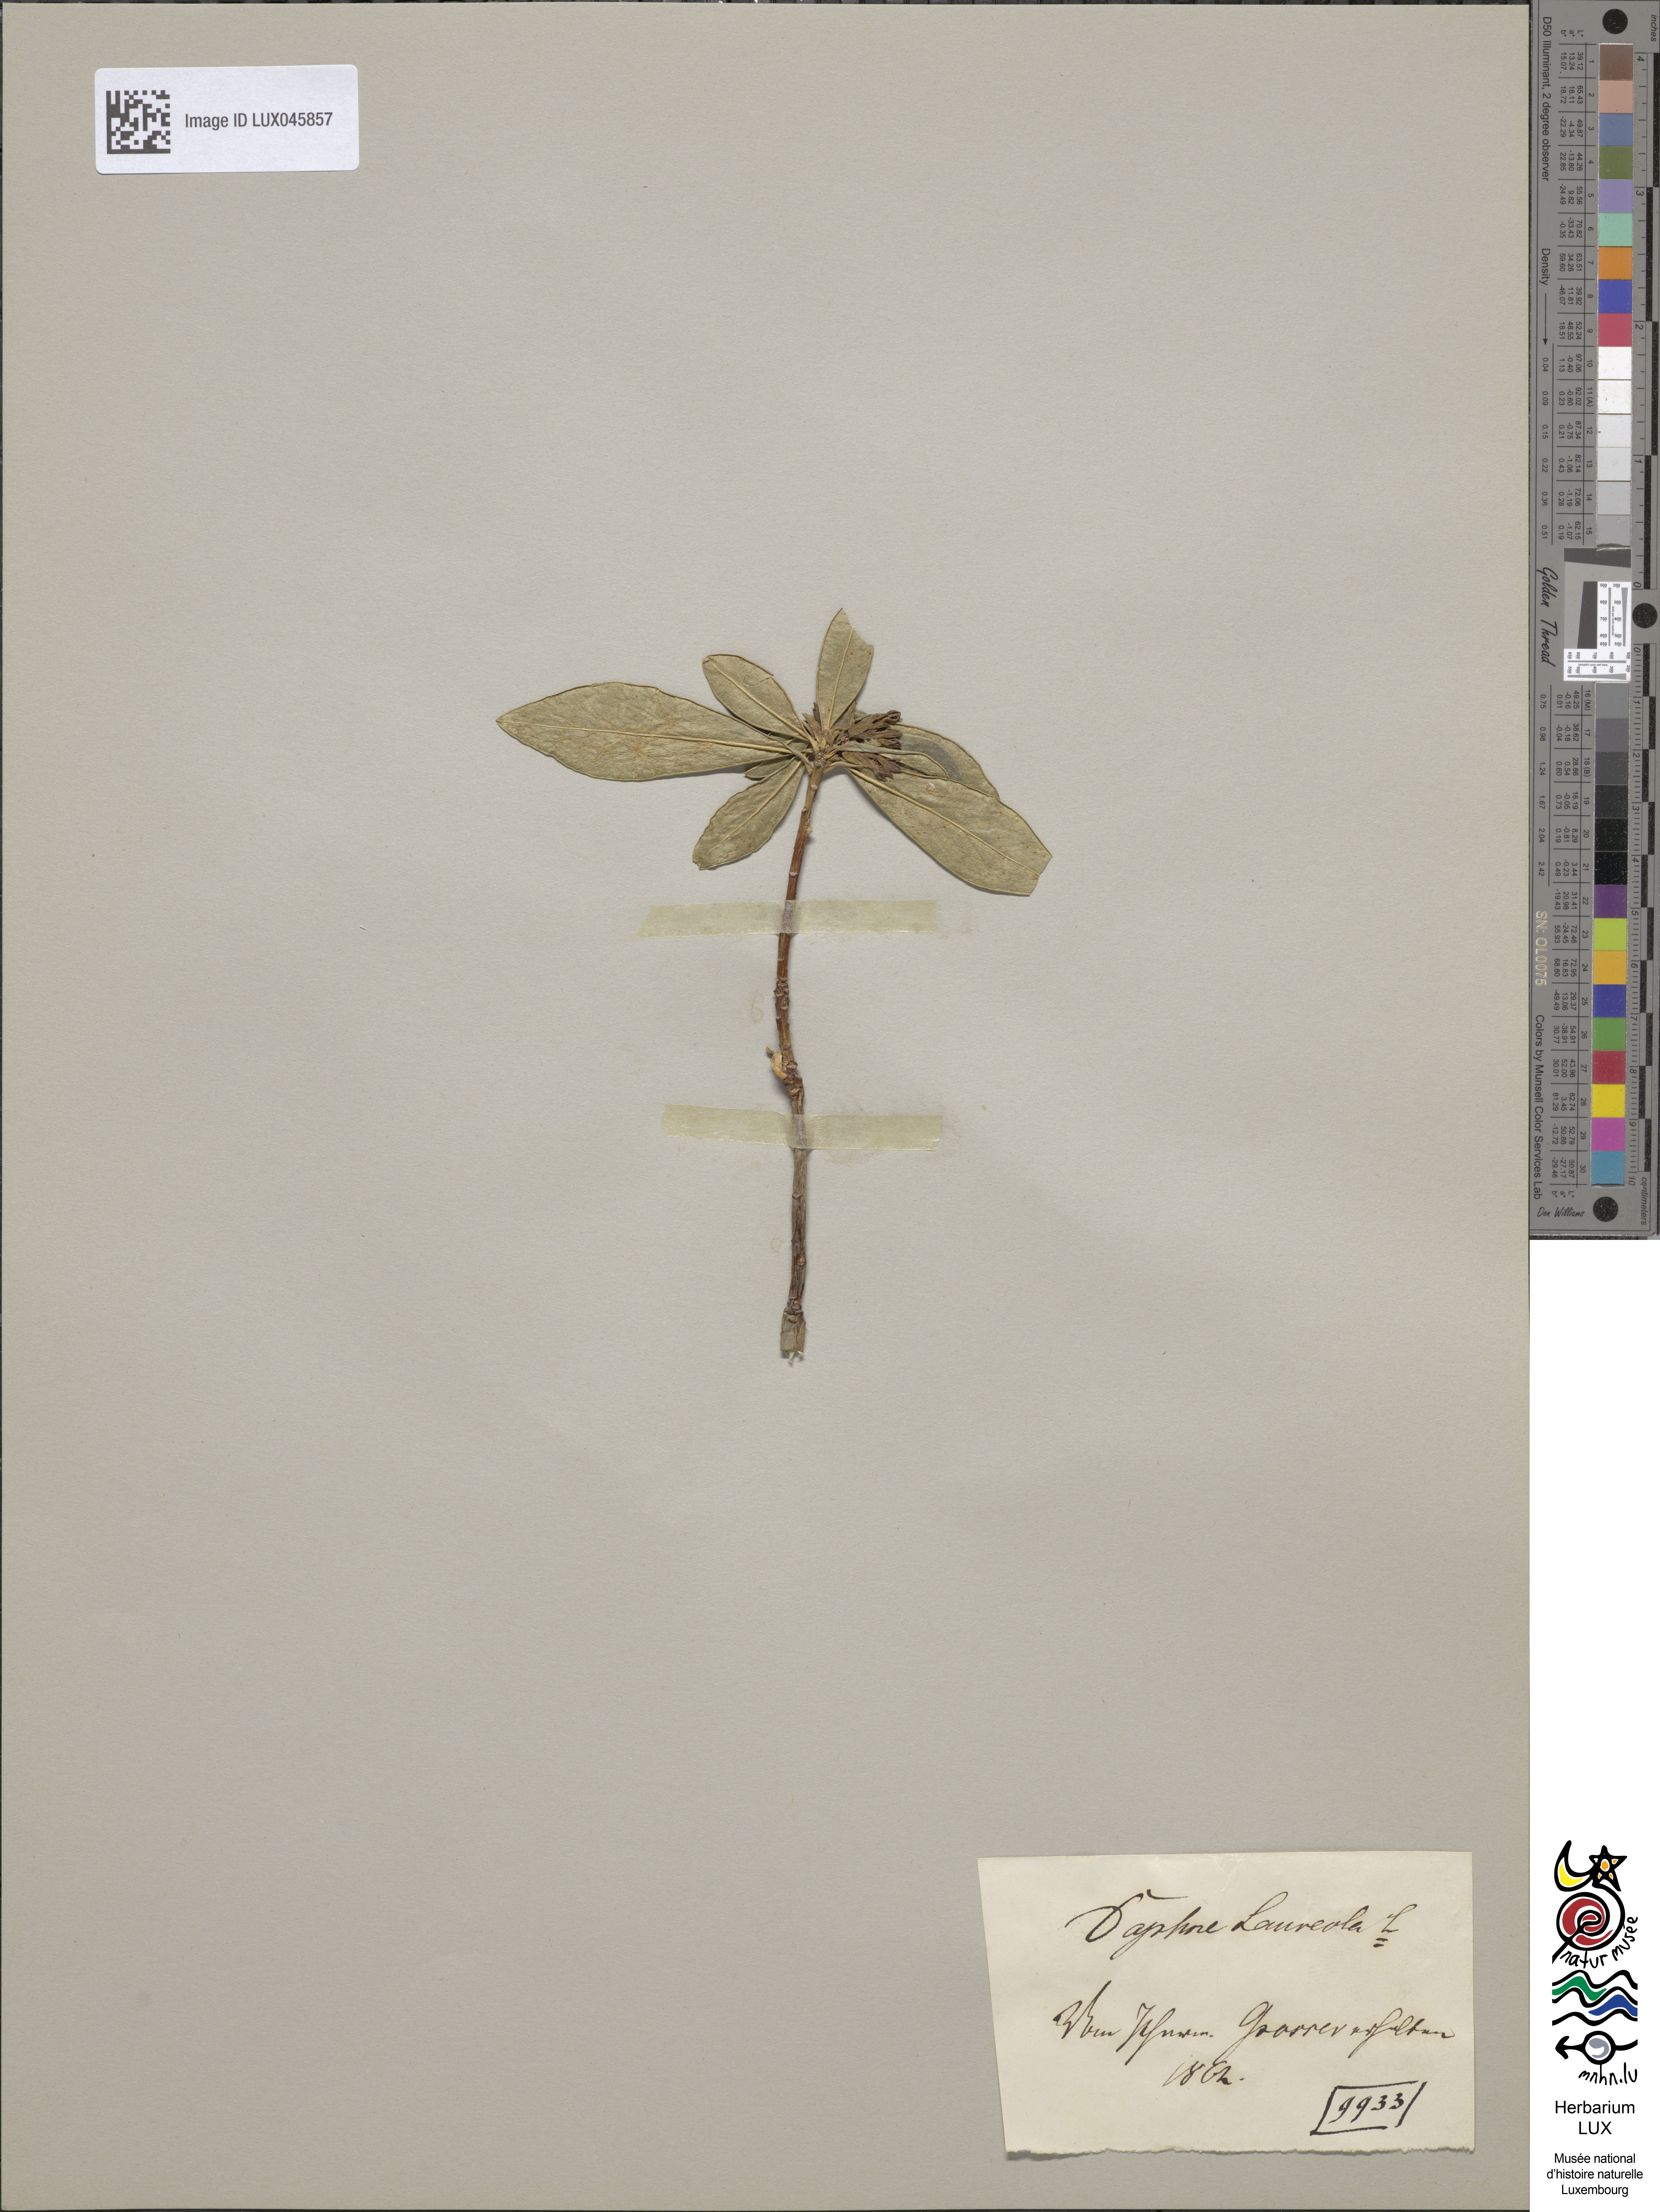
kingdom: Plantae
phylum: Tracheophyta
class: Magnoliopsida
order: Malvales
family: Thymelaeaceae
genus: Daphne
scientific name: Daphne laureola
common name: Spurge-laurel
